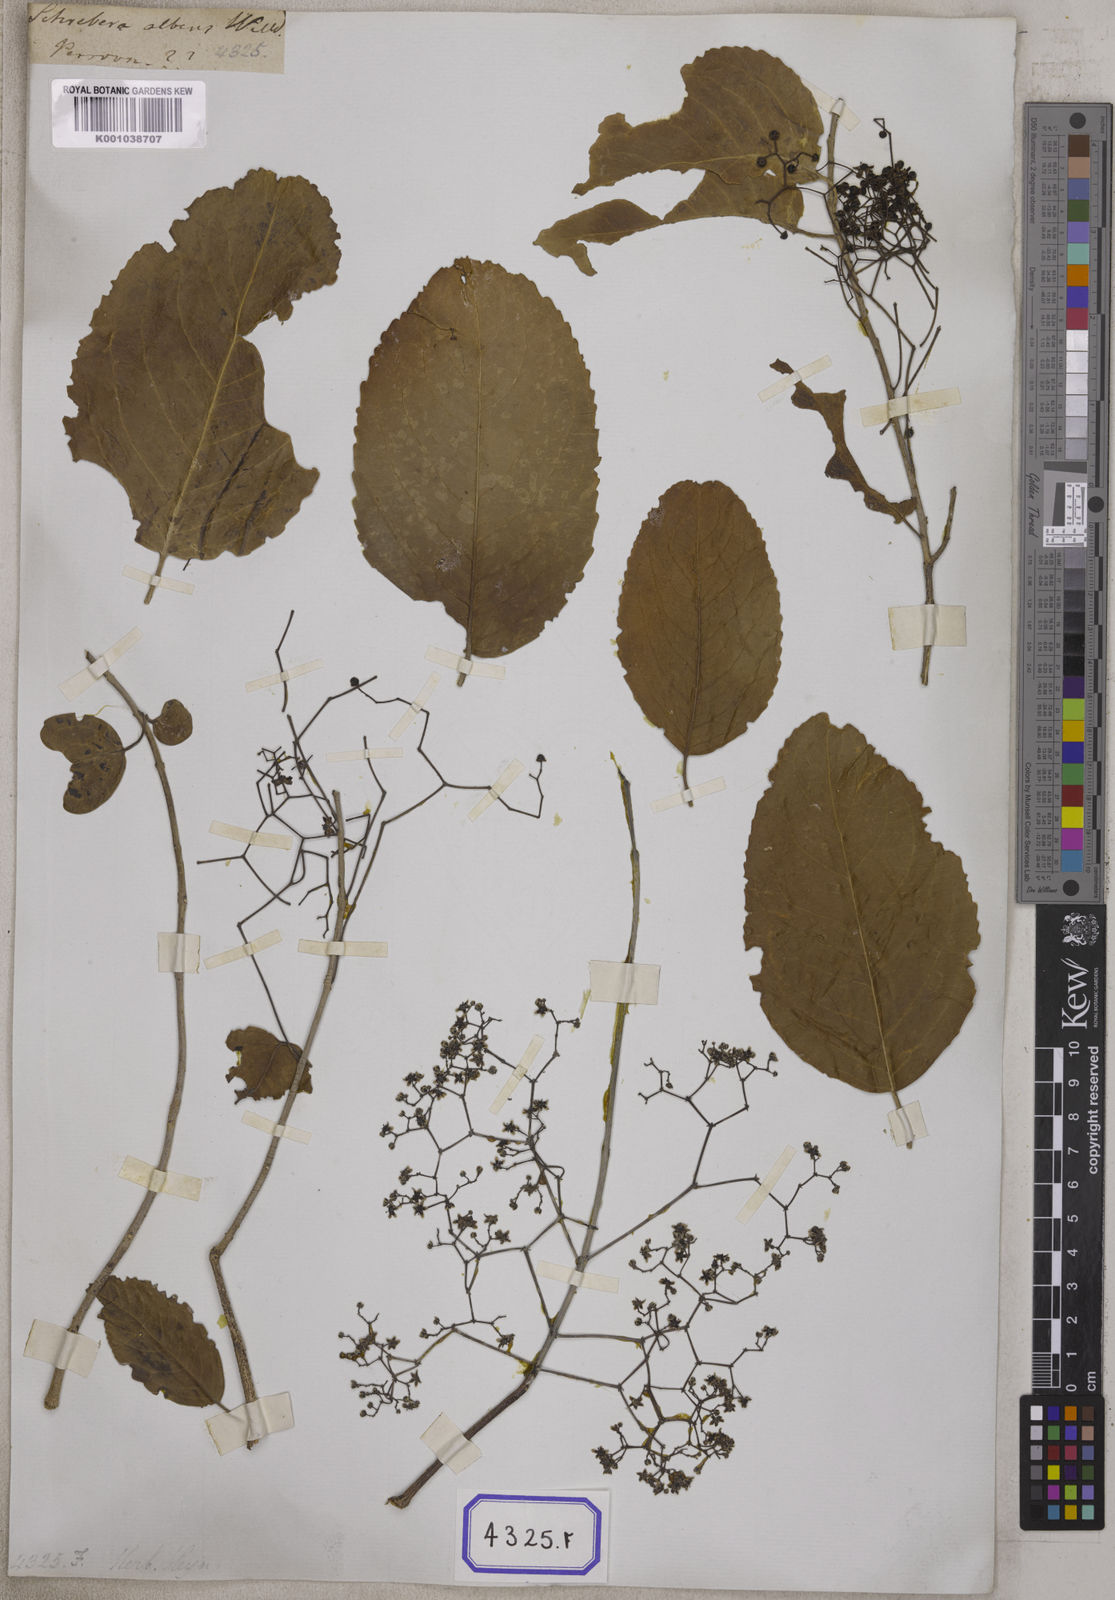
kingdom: Plantae
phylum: Tracheophyta
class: Magnoliopsida
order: Celastrales
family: Celastraceae
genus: Elaeodendron
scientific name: Elaeodendron glaucum
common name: Ceylon-tea
